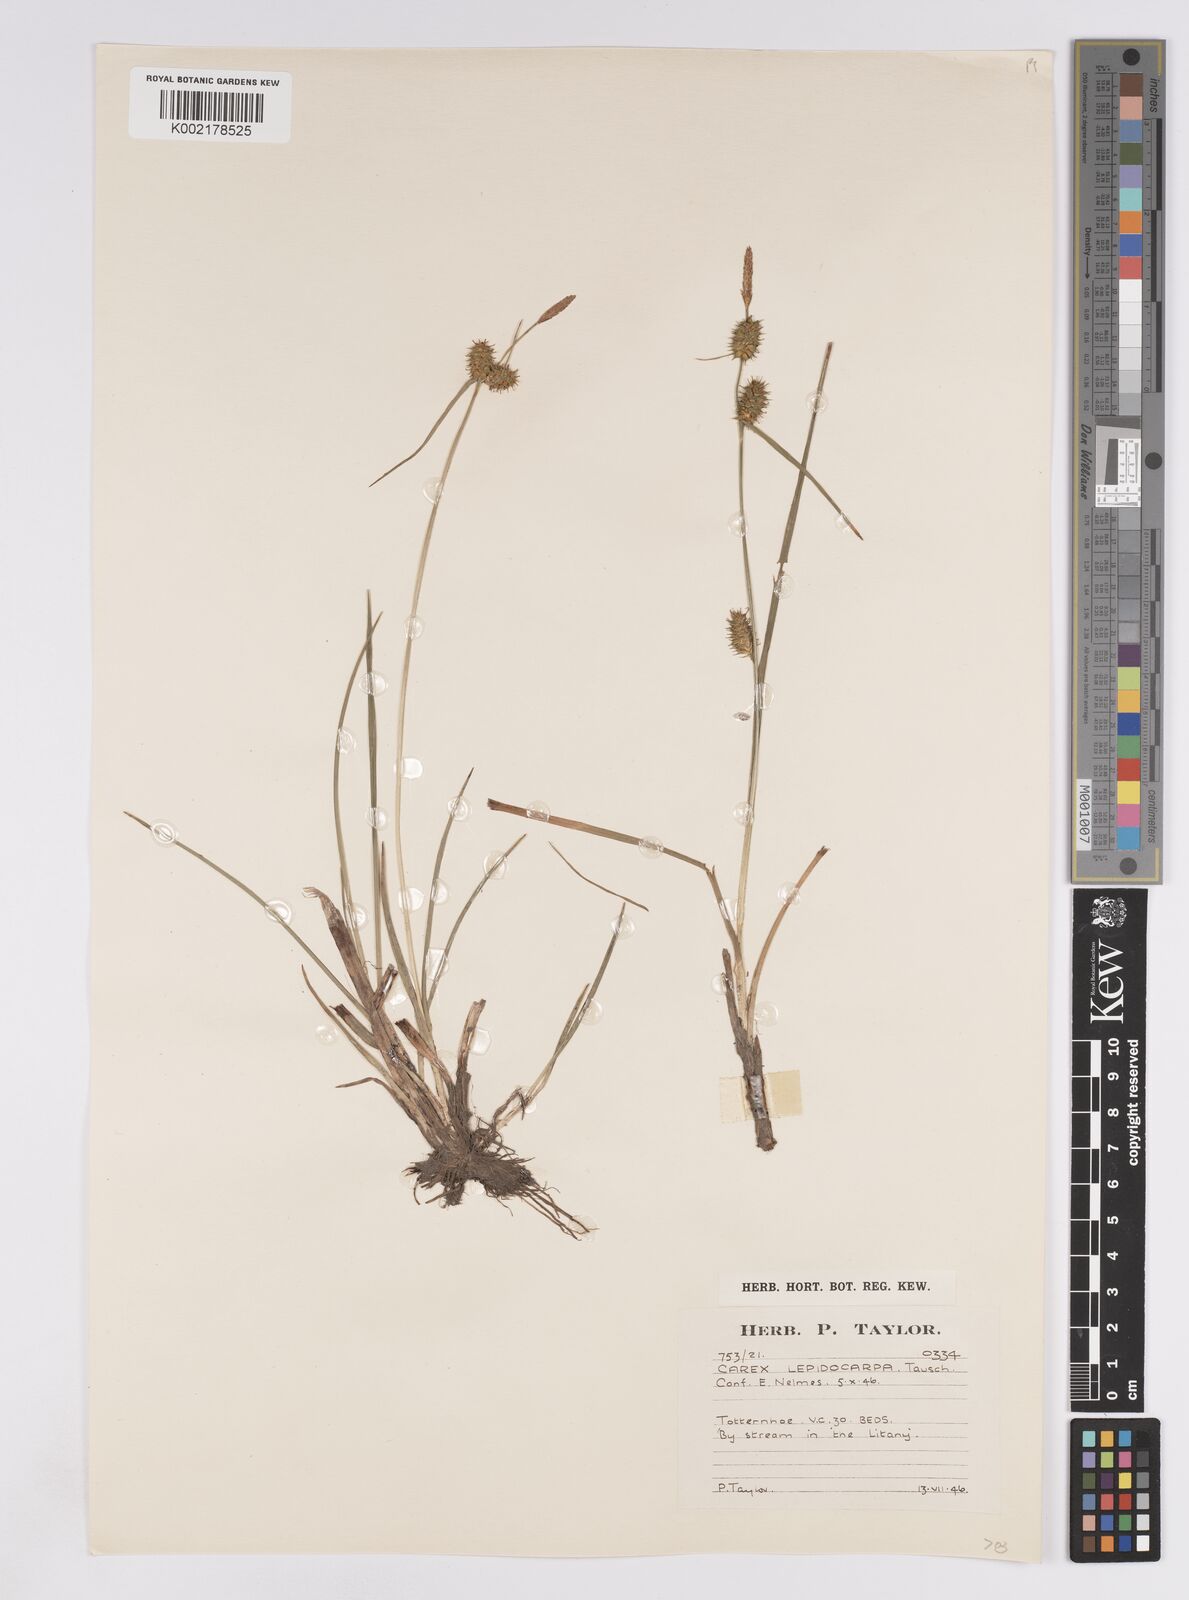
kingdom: Plantae
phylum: Tracheophyta
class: Liliopsida
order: Poales
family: Cyperaceae
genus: Carex
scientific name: Carex lepidocarpa
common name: Long-stalked yellow-sedge
